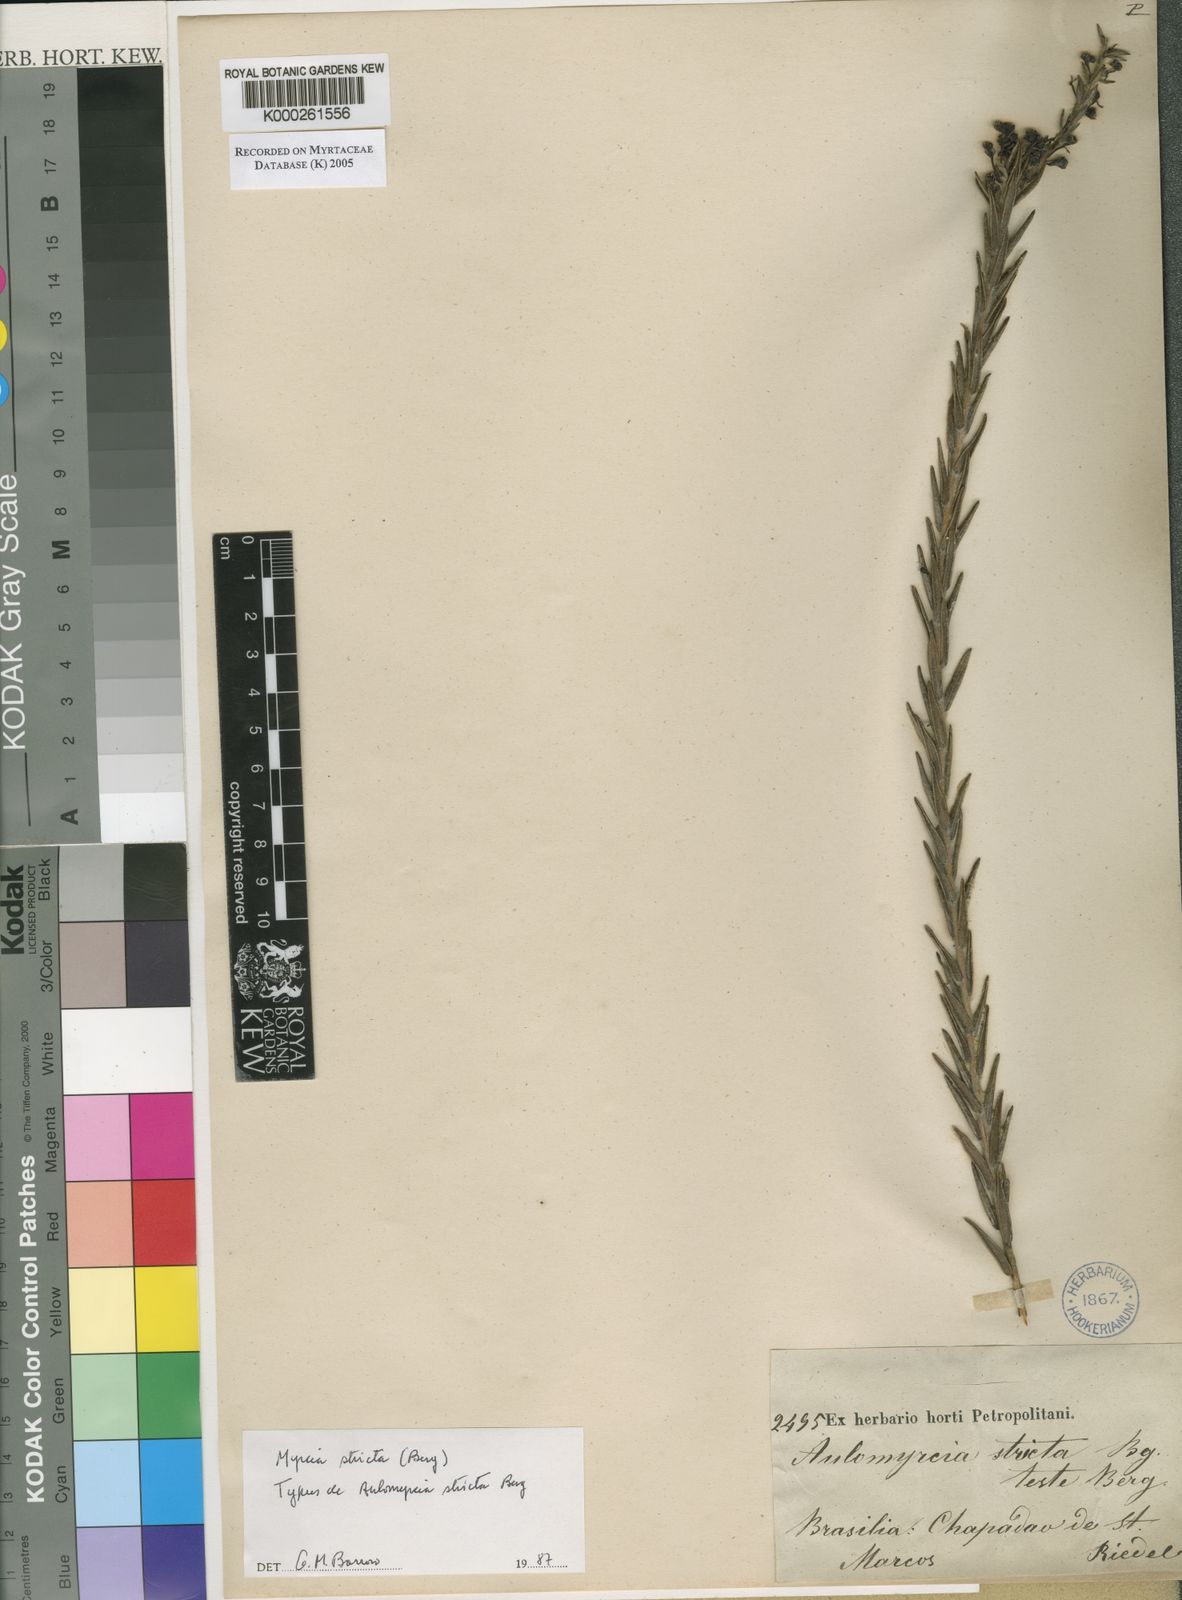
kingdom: Plantae
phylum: Tracheophyta
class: Magnoliopsida
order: Myrtales
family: Myrtaceae
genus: Myrcia
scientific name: Myrcia stricta
